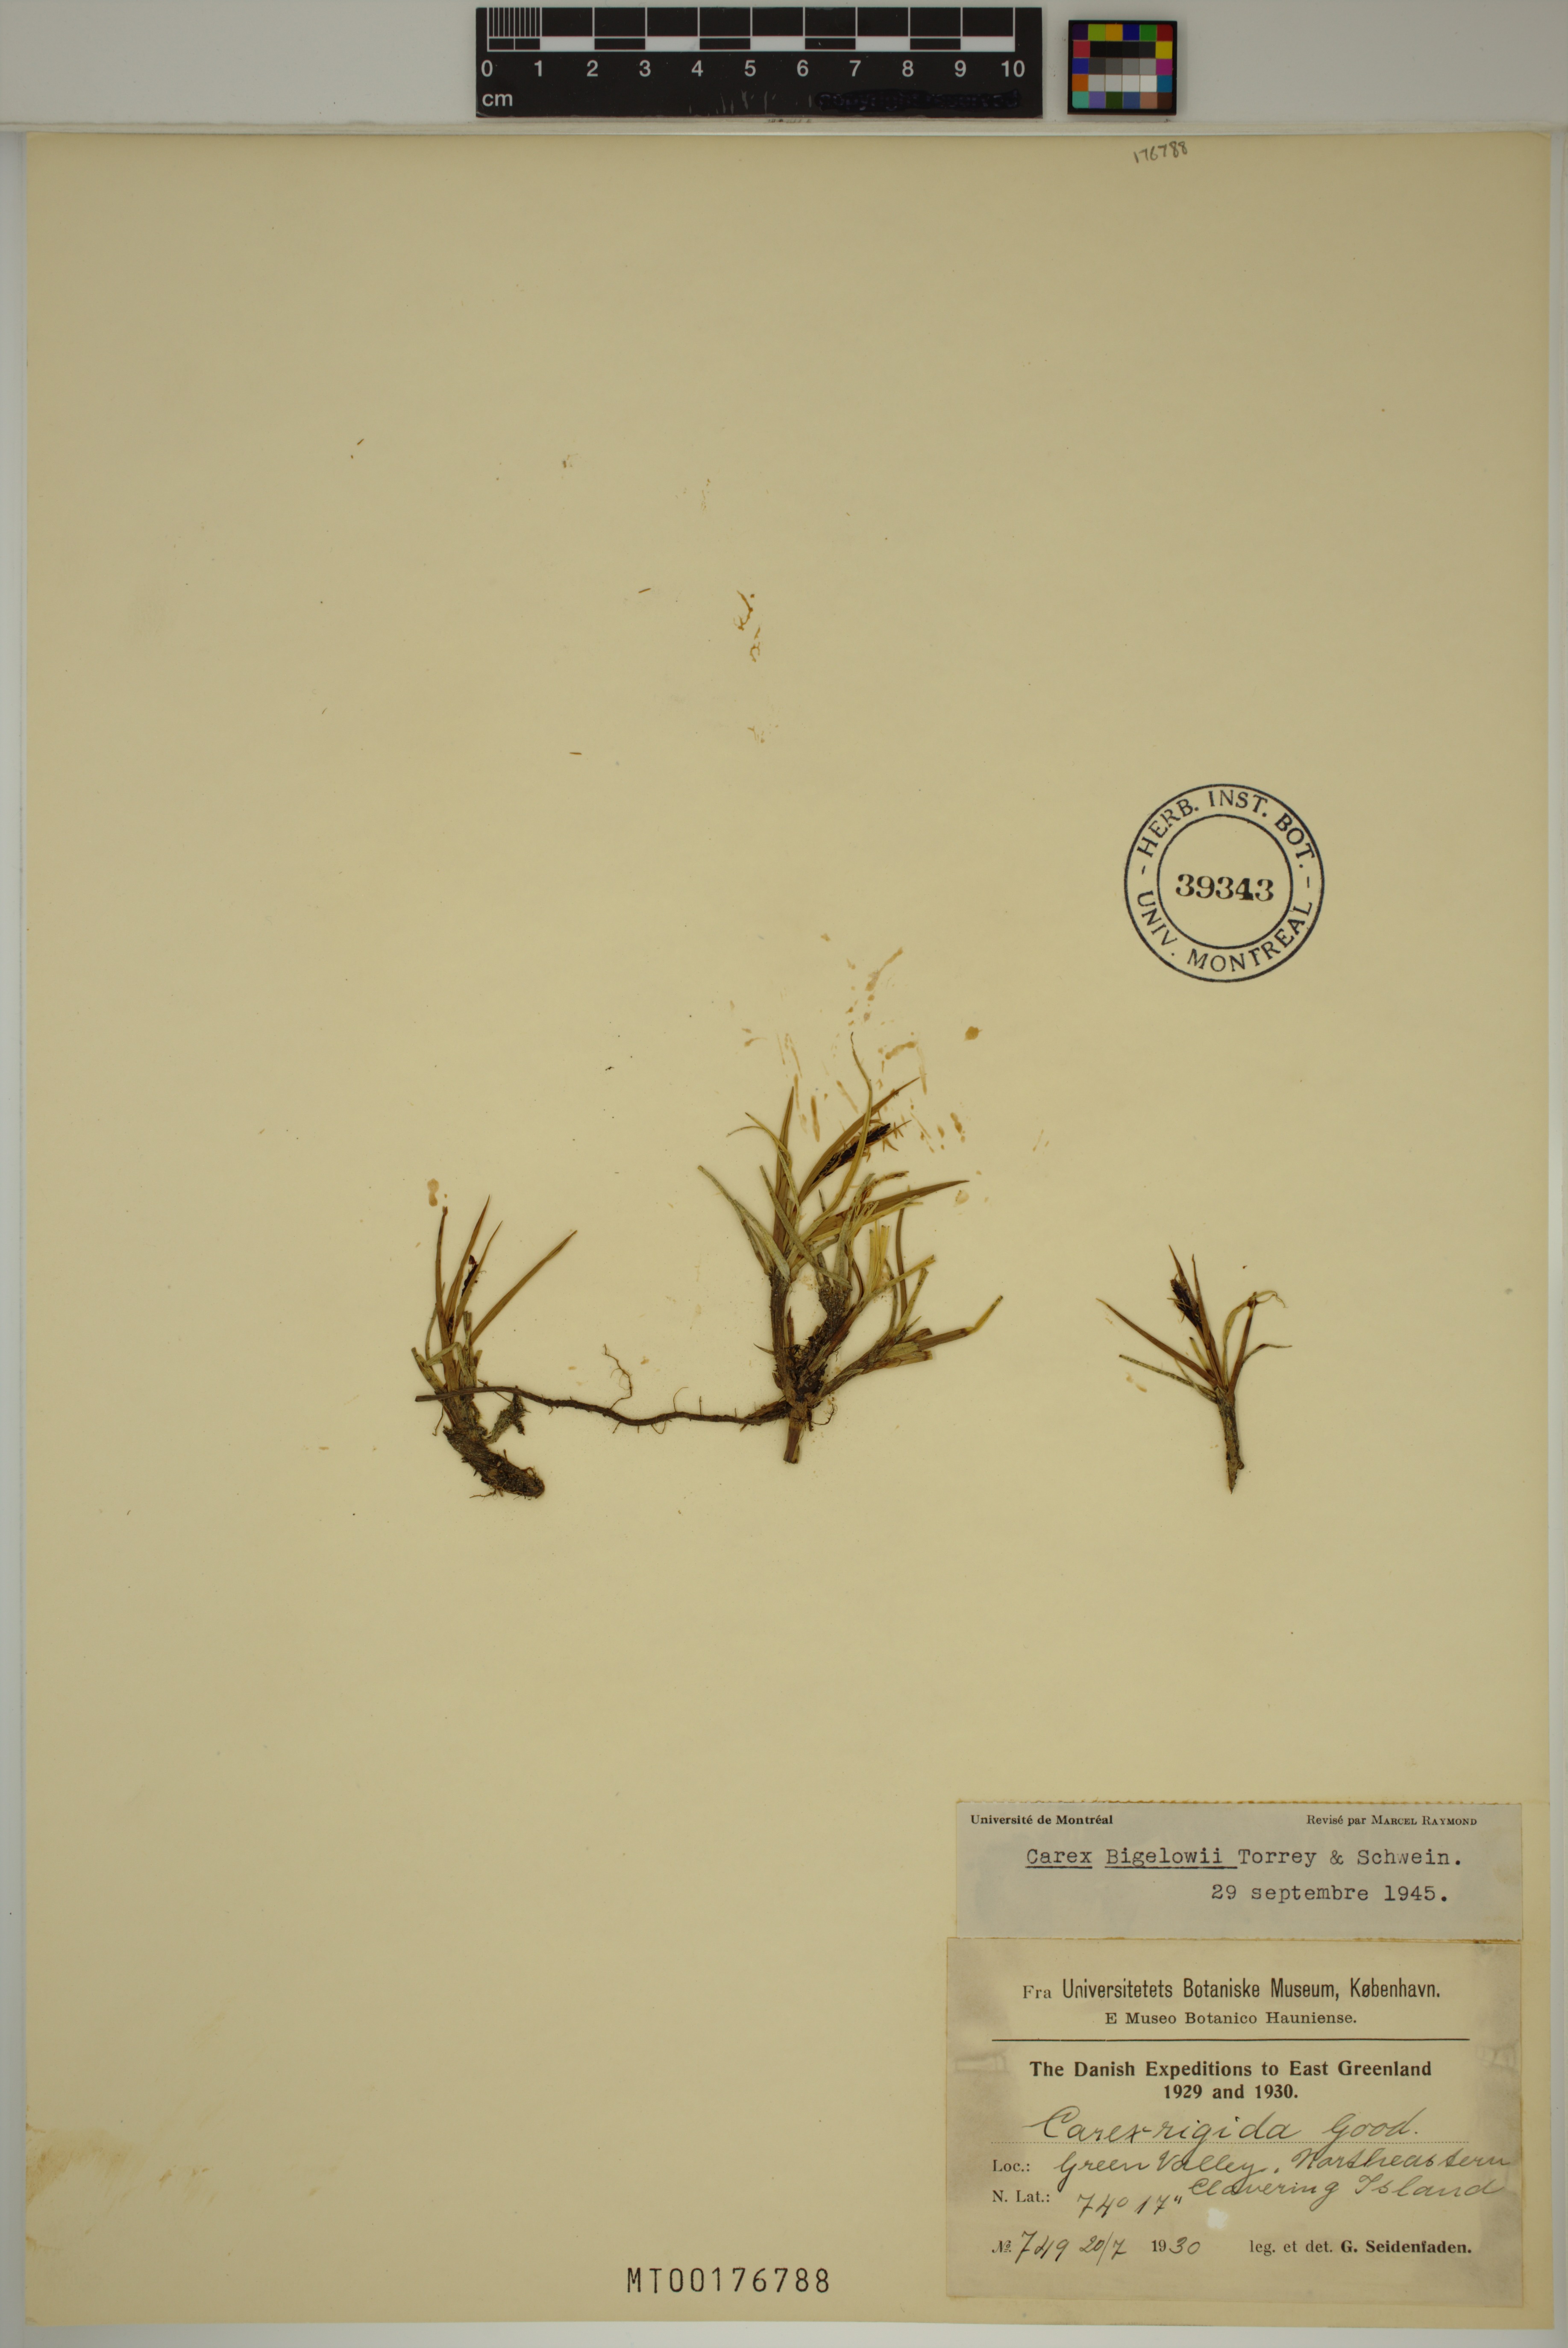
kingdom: Plantae
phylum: Tracheophyta
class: Liliopsida
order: Poales
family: Cyperaceae
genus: Carex
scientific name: Carex bigelowii
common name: Stiff sedge
